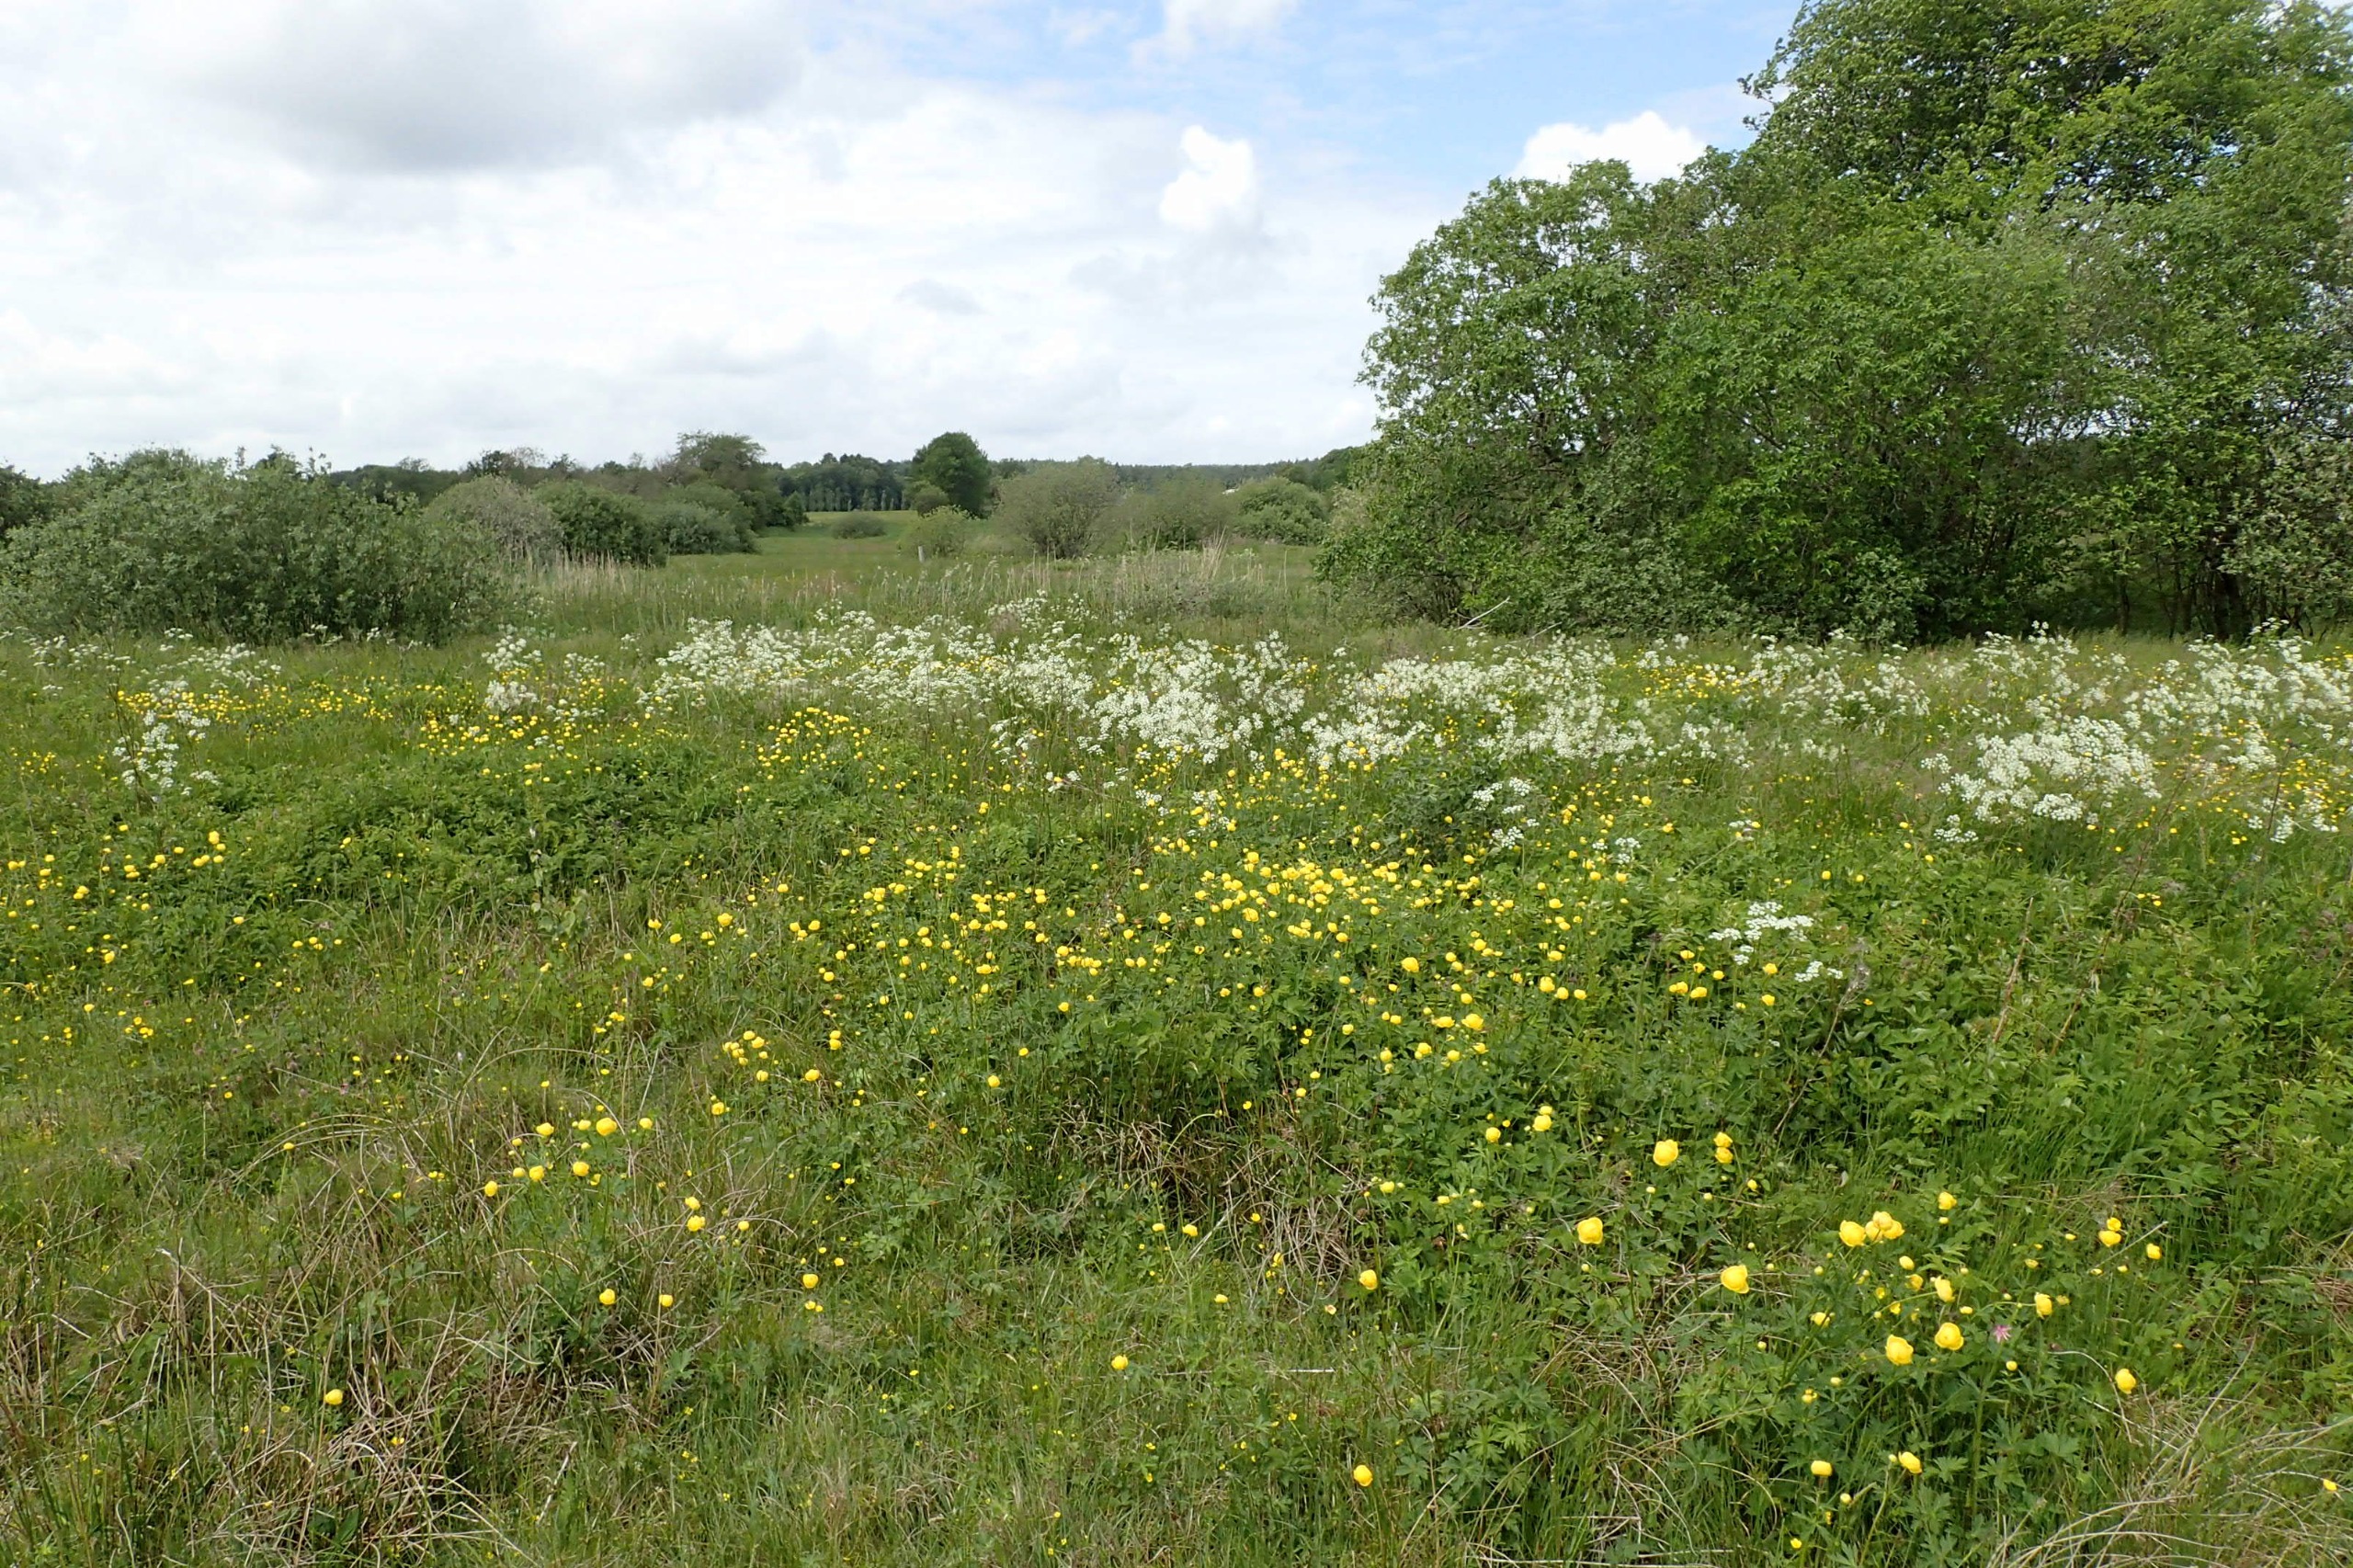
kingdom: Plantae
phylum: Tracheophyta
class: Magnoliopsida
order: Ranunculales
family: Ranunculaceae
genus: Trollius
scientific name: Trollius europaeus
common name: Engblomme
